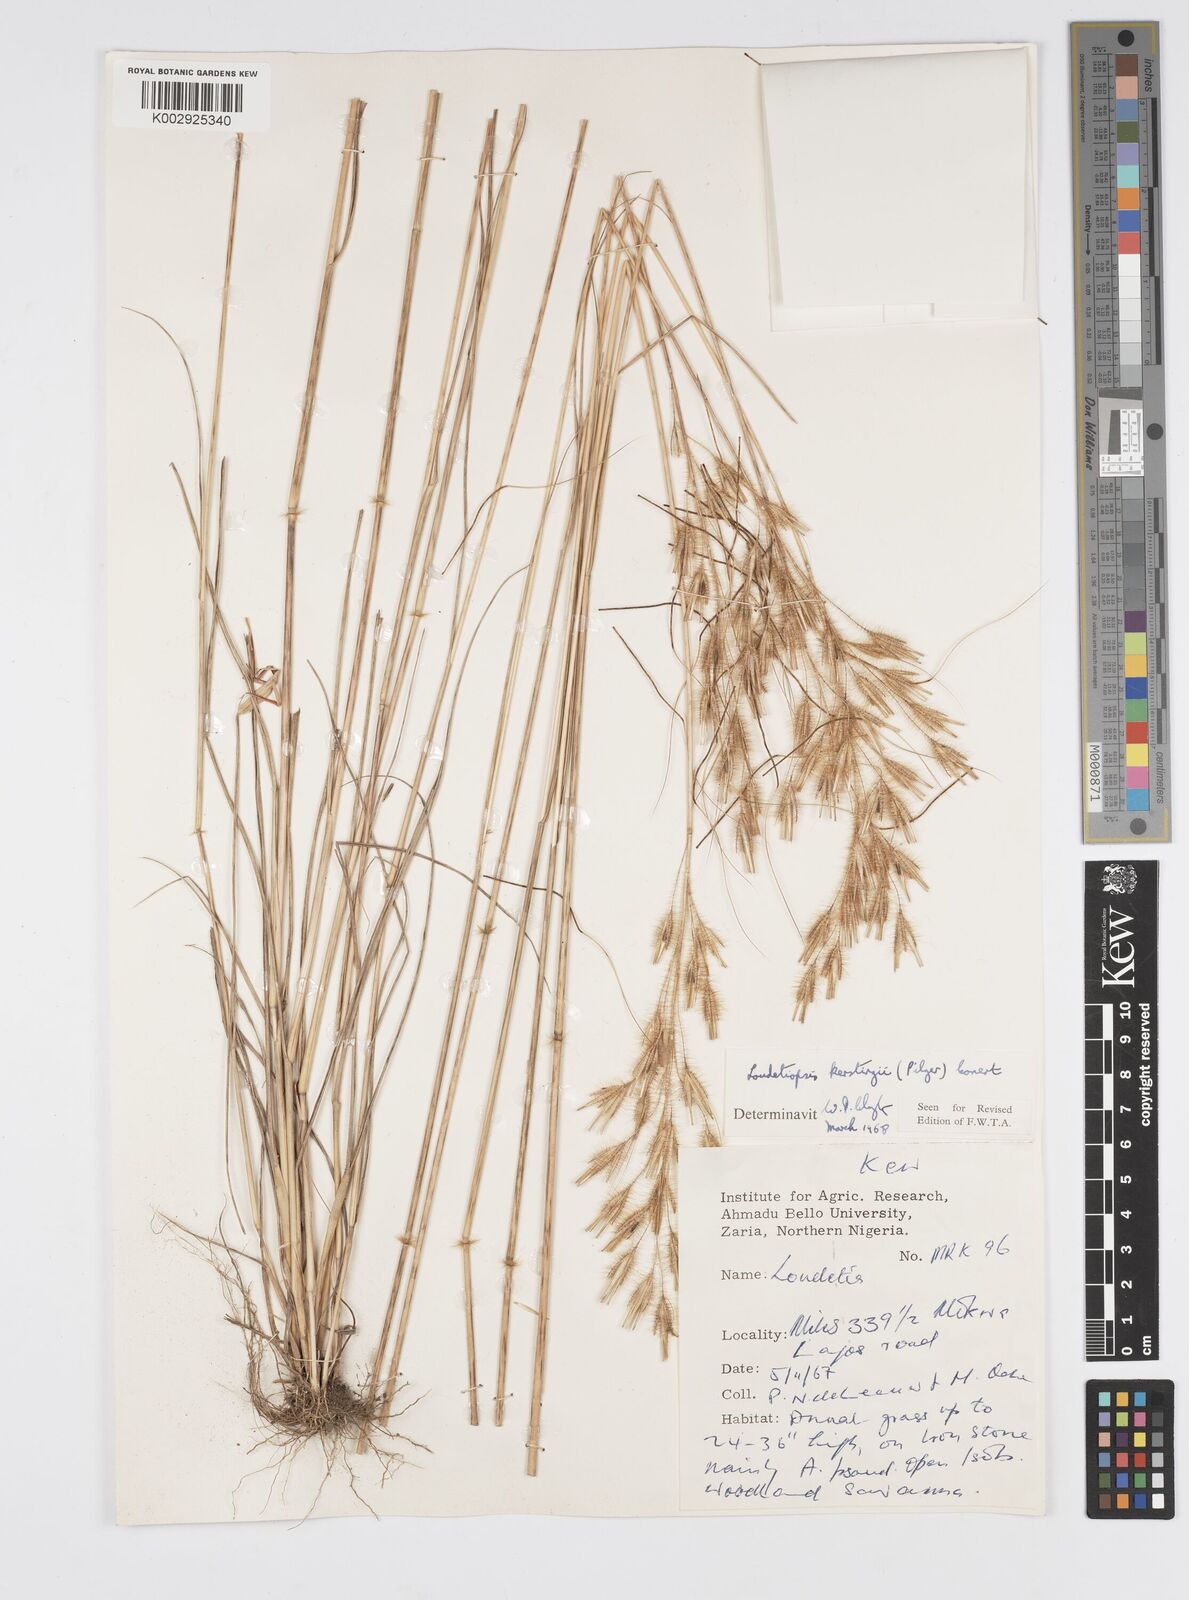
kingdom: Plantae
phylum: Tracheophyta
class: Liliopsida
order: Poales
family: Poaceae
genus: Loudetiopsis
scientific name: Loudetiopsis kerstingii
